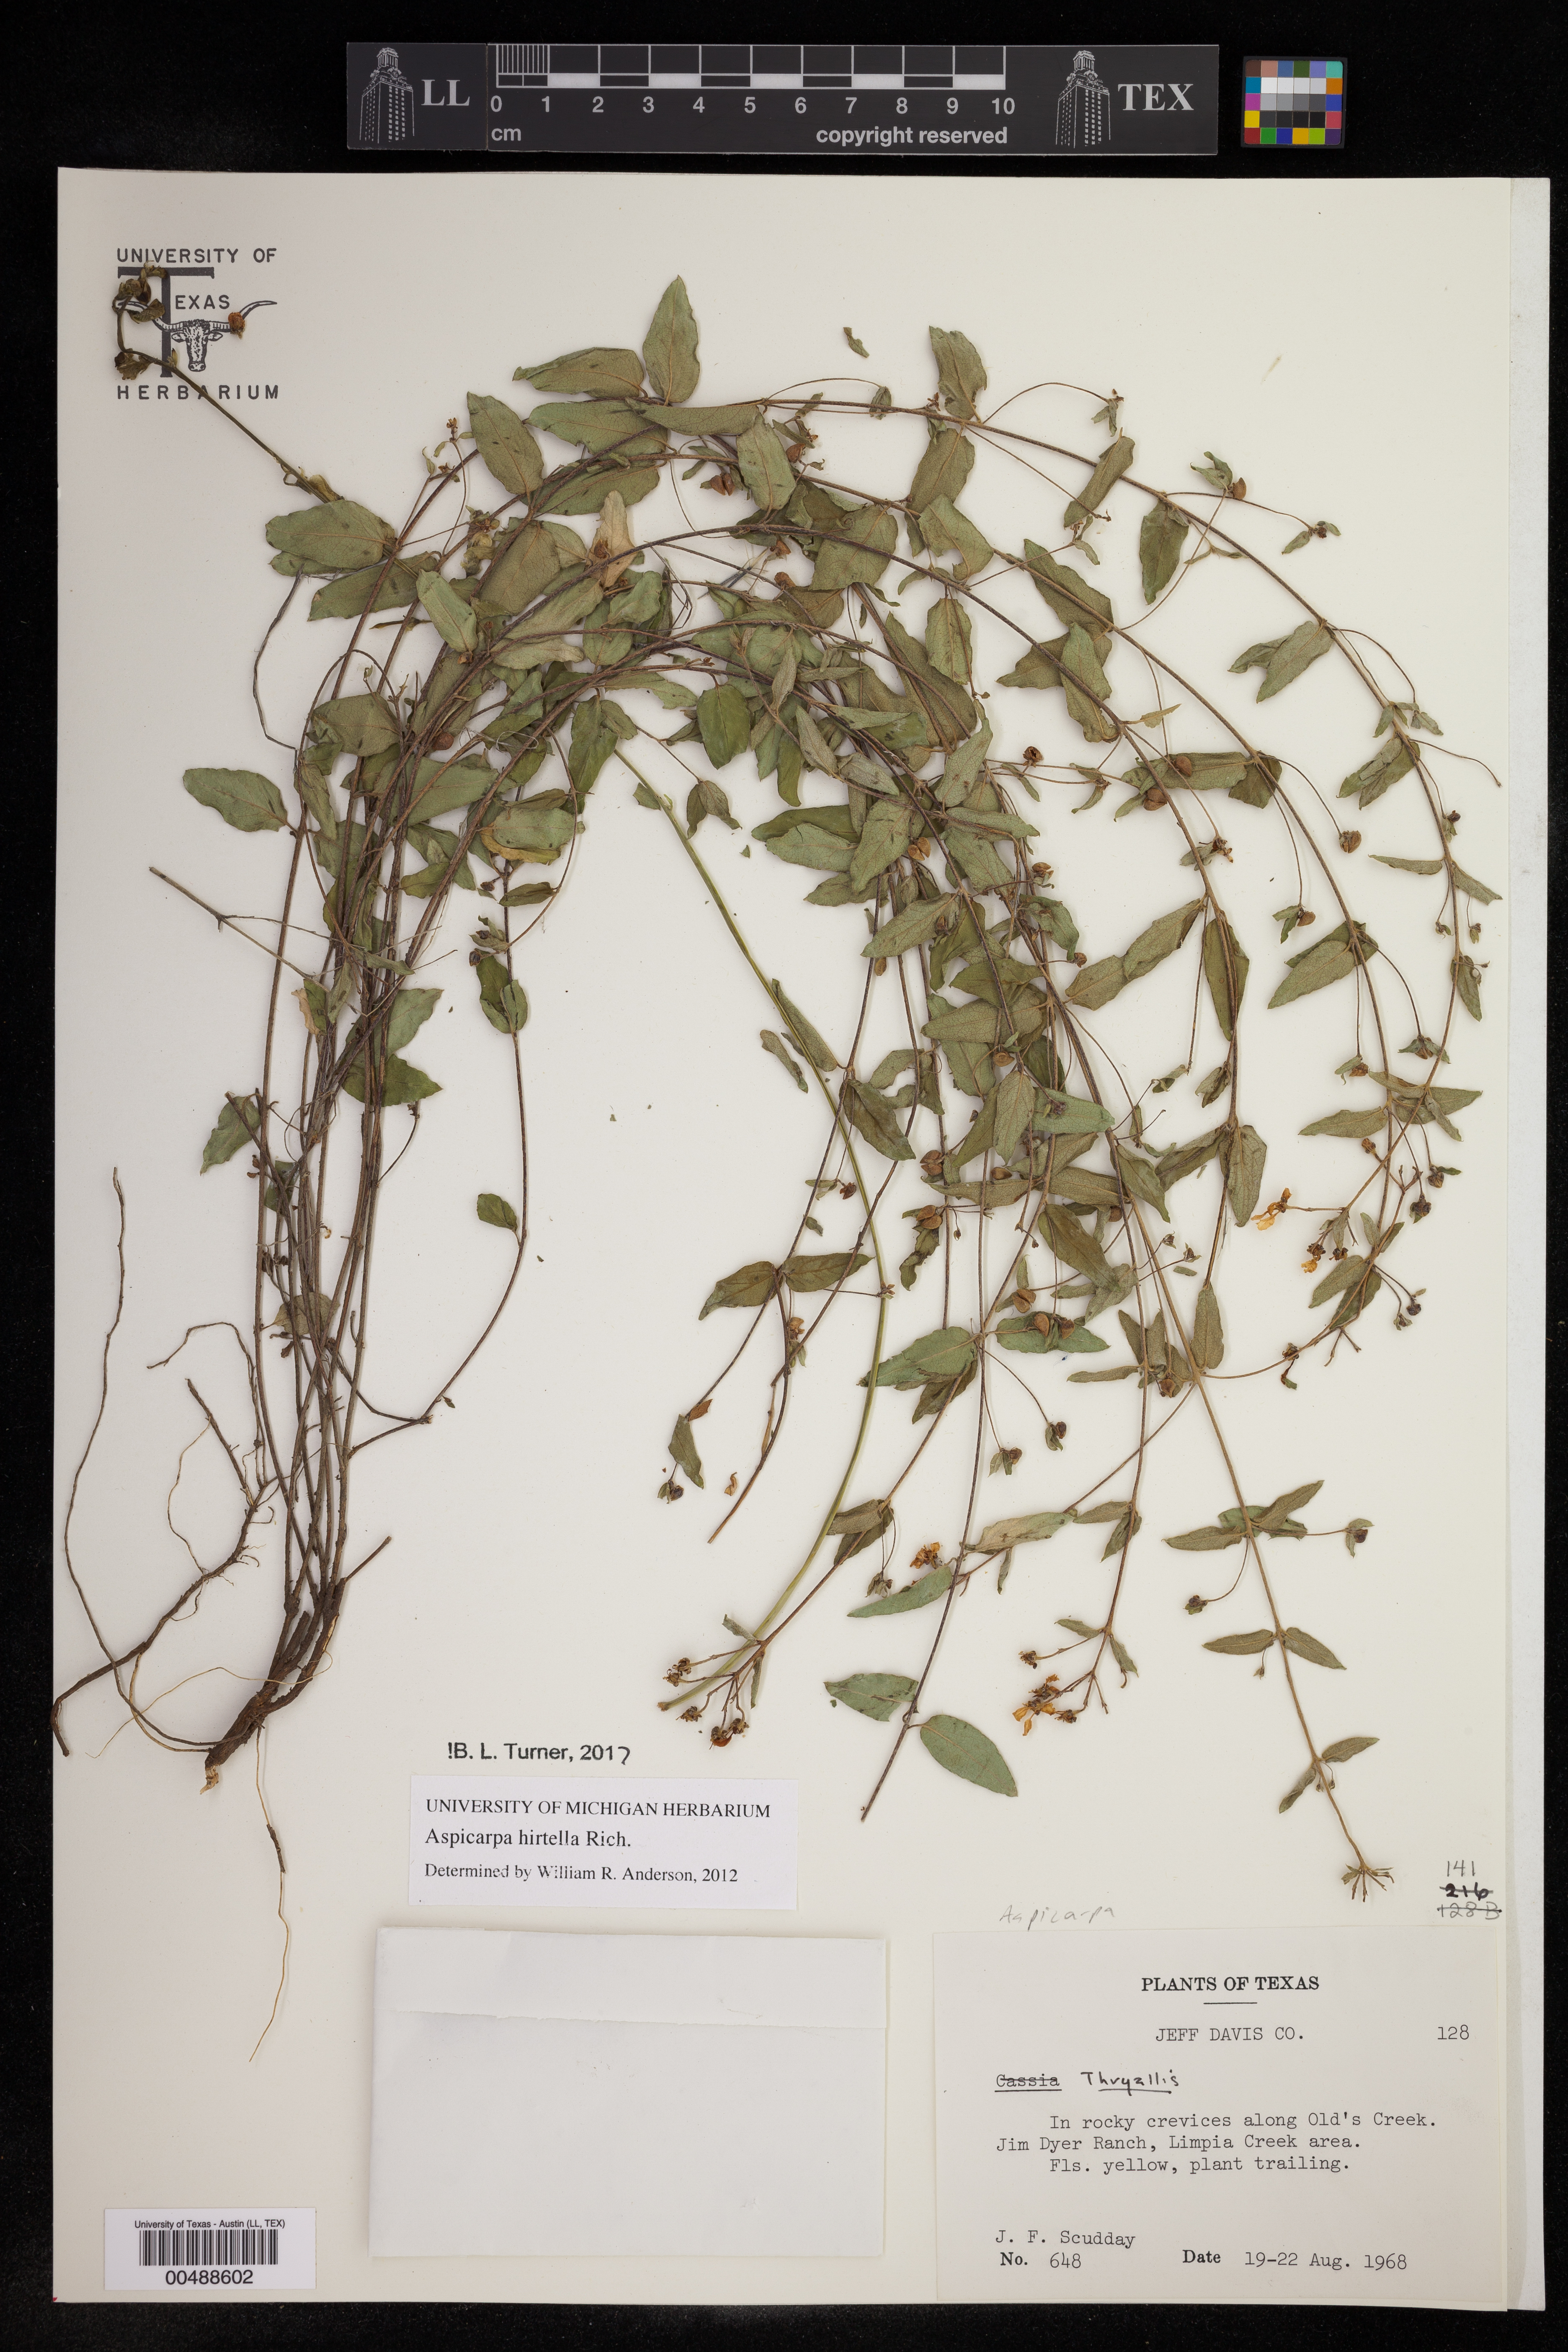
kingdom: Plantae
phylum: Tracheophyta
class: Magnoliopsida
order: Malpighiales
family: Malpighiaceae
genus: Aspicarpa
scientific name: Aspicarpa hirtella
